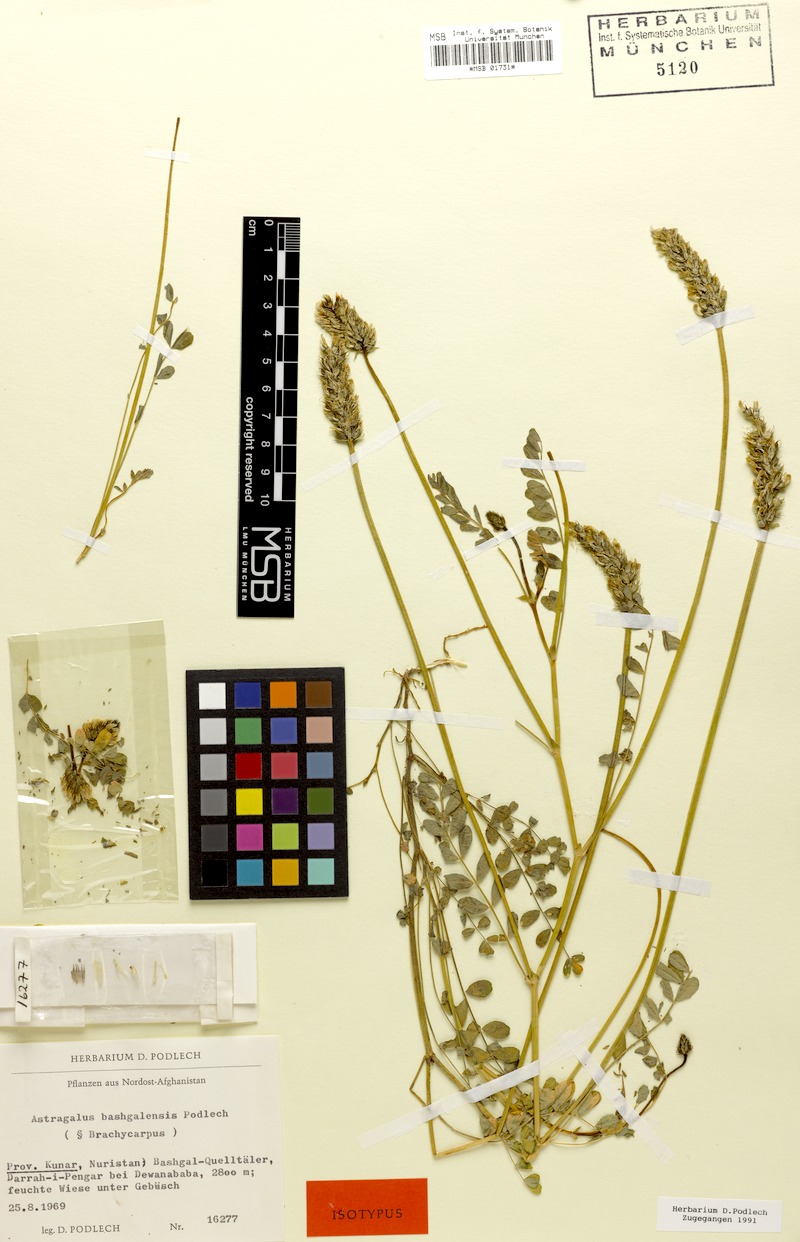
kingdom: Plantae
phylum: Tracheophyta
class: Magnoliopsida
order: Fabales
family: Fabaceae
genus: Astragalus
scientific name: Astragalus bashgalensis
